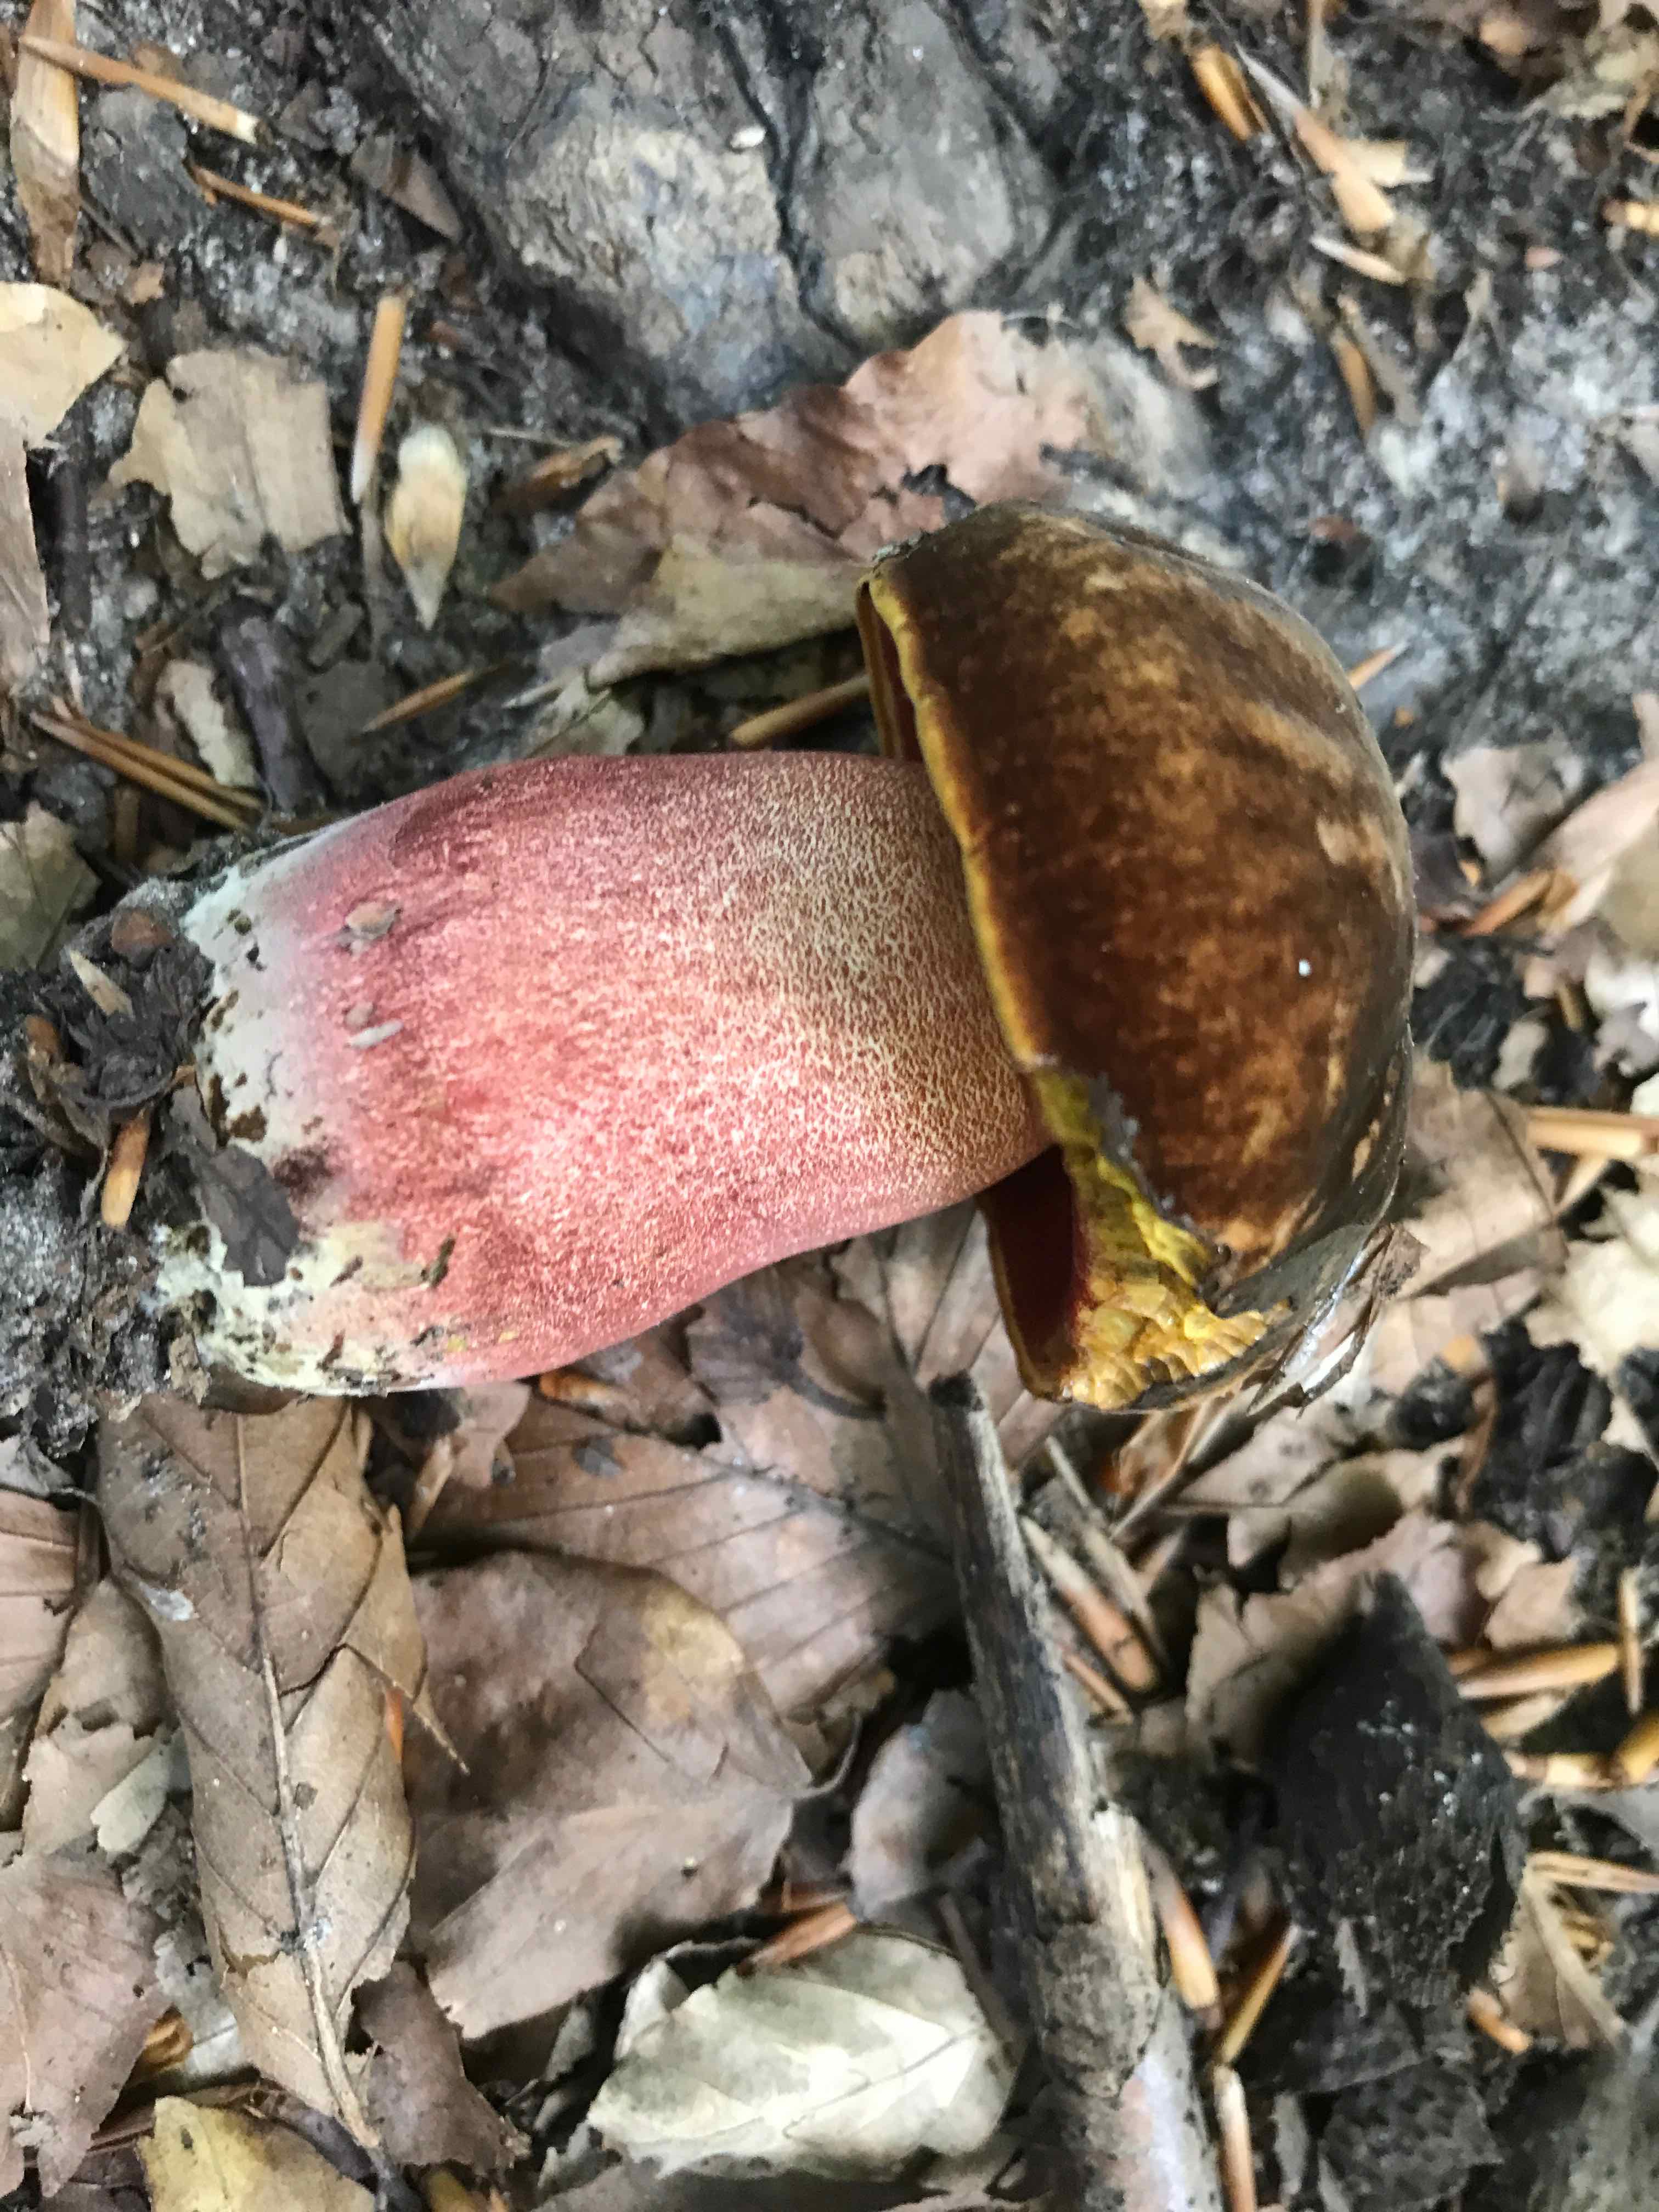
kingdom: Fungi
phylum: Basidiomycota
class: Agaricomycetes
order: Boletales
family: Boletaceae
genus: Neoboletus
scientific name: Neoboletus erythropus
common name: punktstokket indigorørhat
